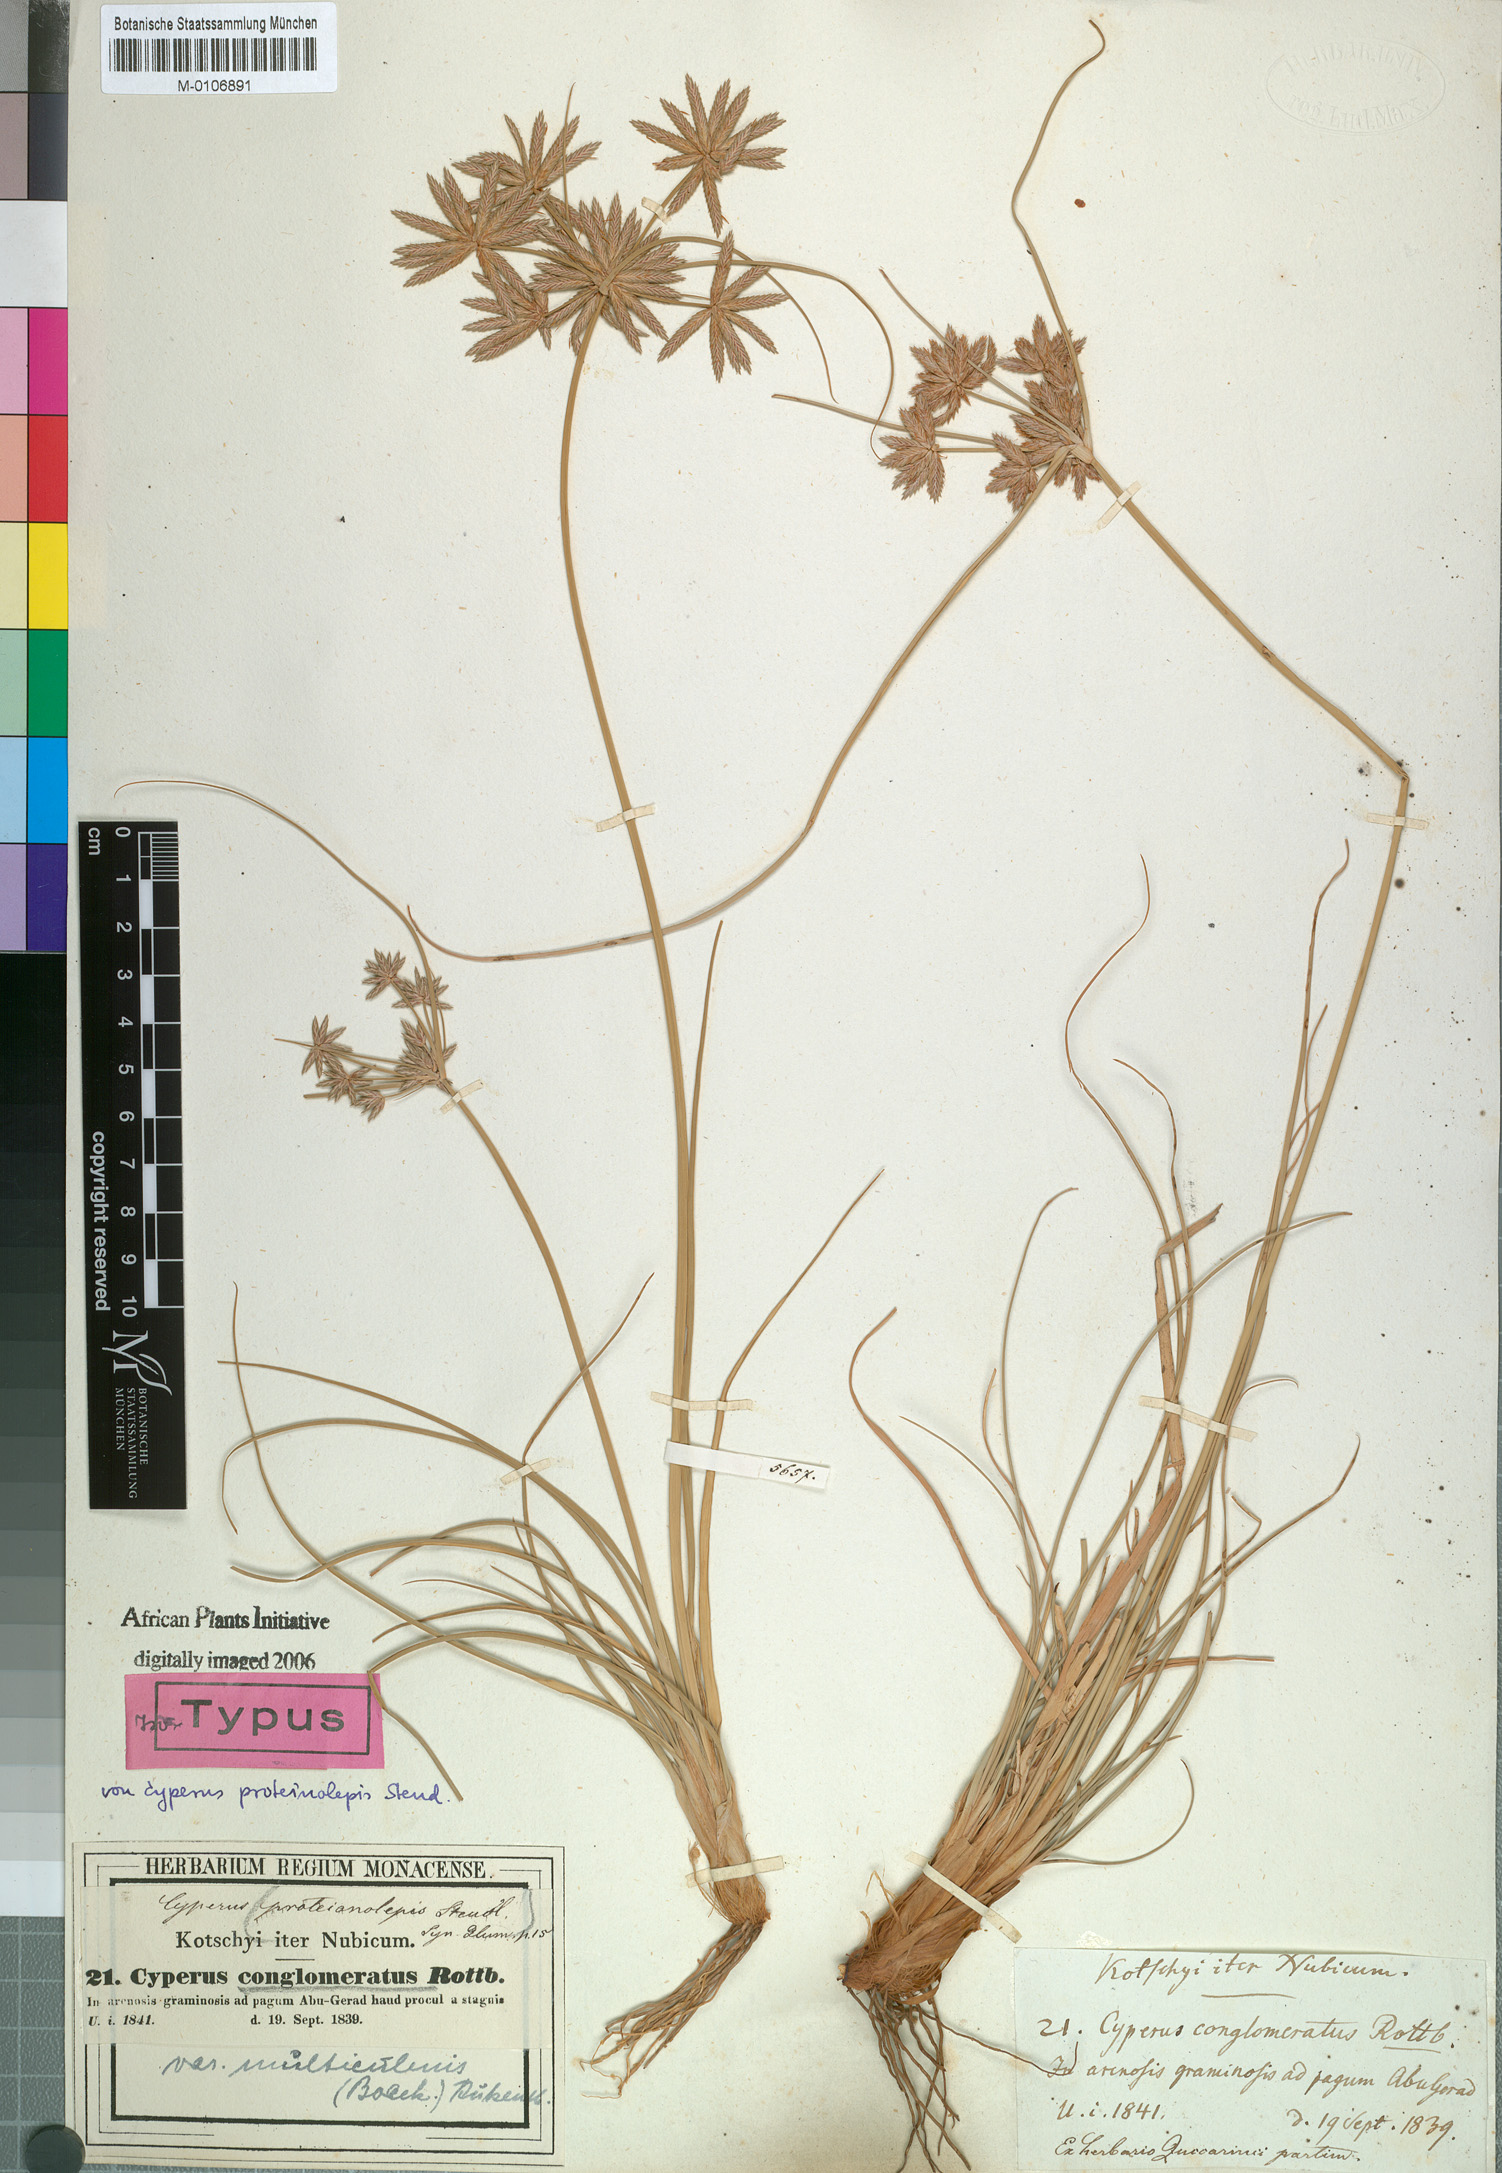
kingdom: Plantae
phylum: Tracheophyta
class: Liliopsida
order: Poales
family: Cyperaceae
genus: Cyperus
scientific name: Cyperus conglomeratus
